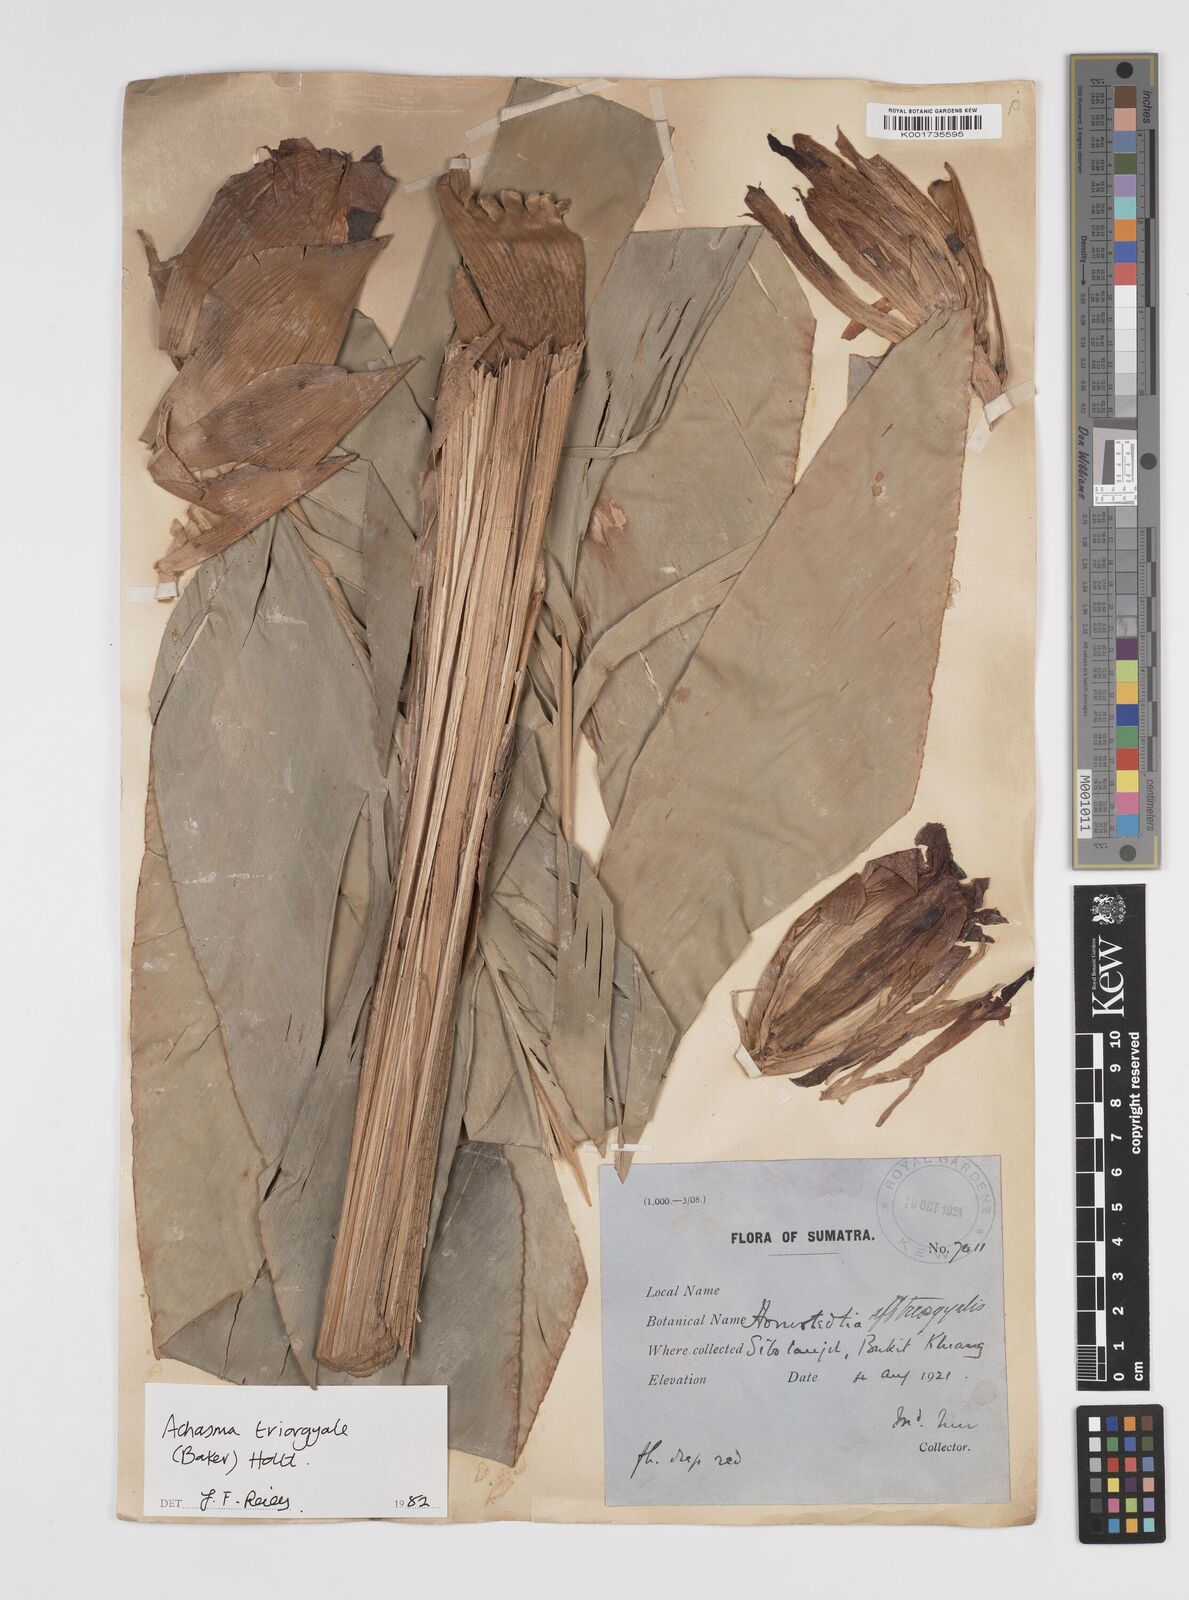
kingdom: Plantae
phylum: Tracheophyta
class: Liliopsida
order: Zingiberales
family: Zingiberaceae
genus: Etlingera
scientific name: Etlingera triorgyalis
